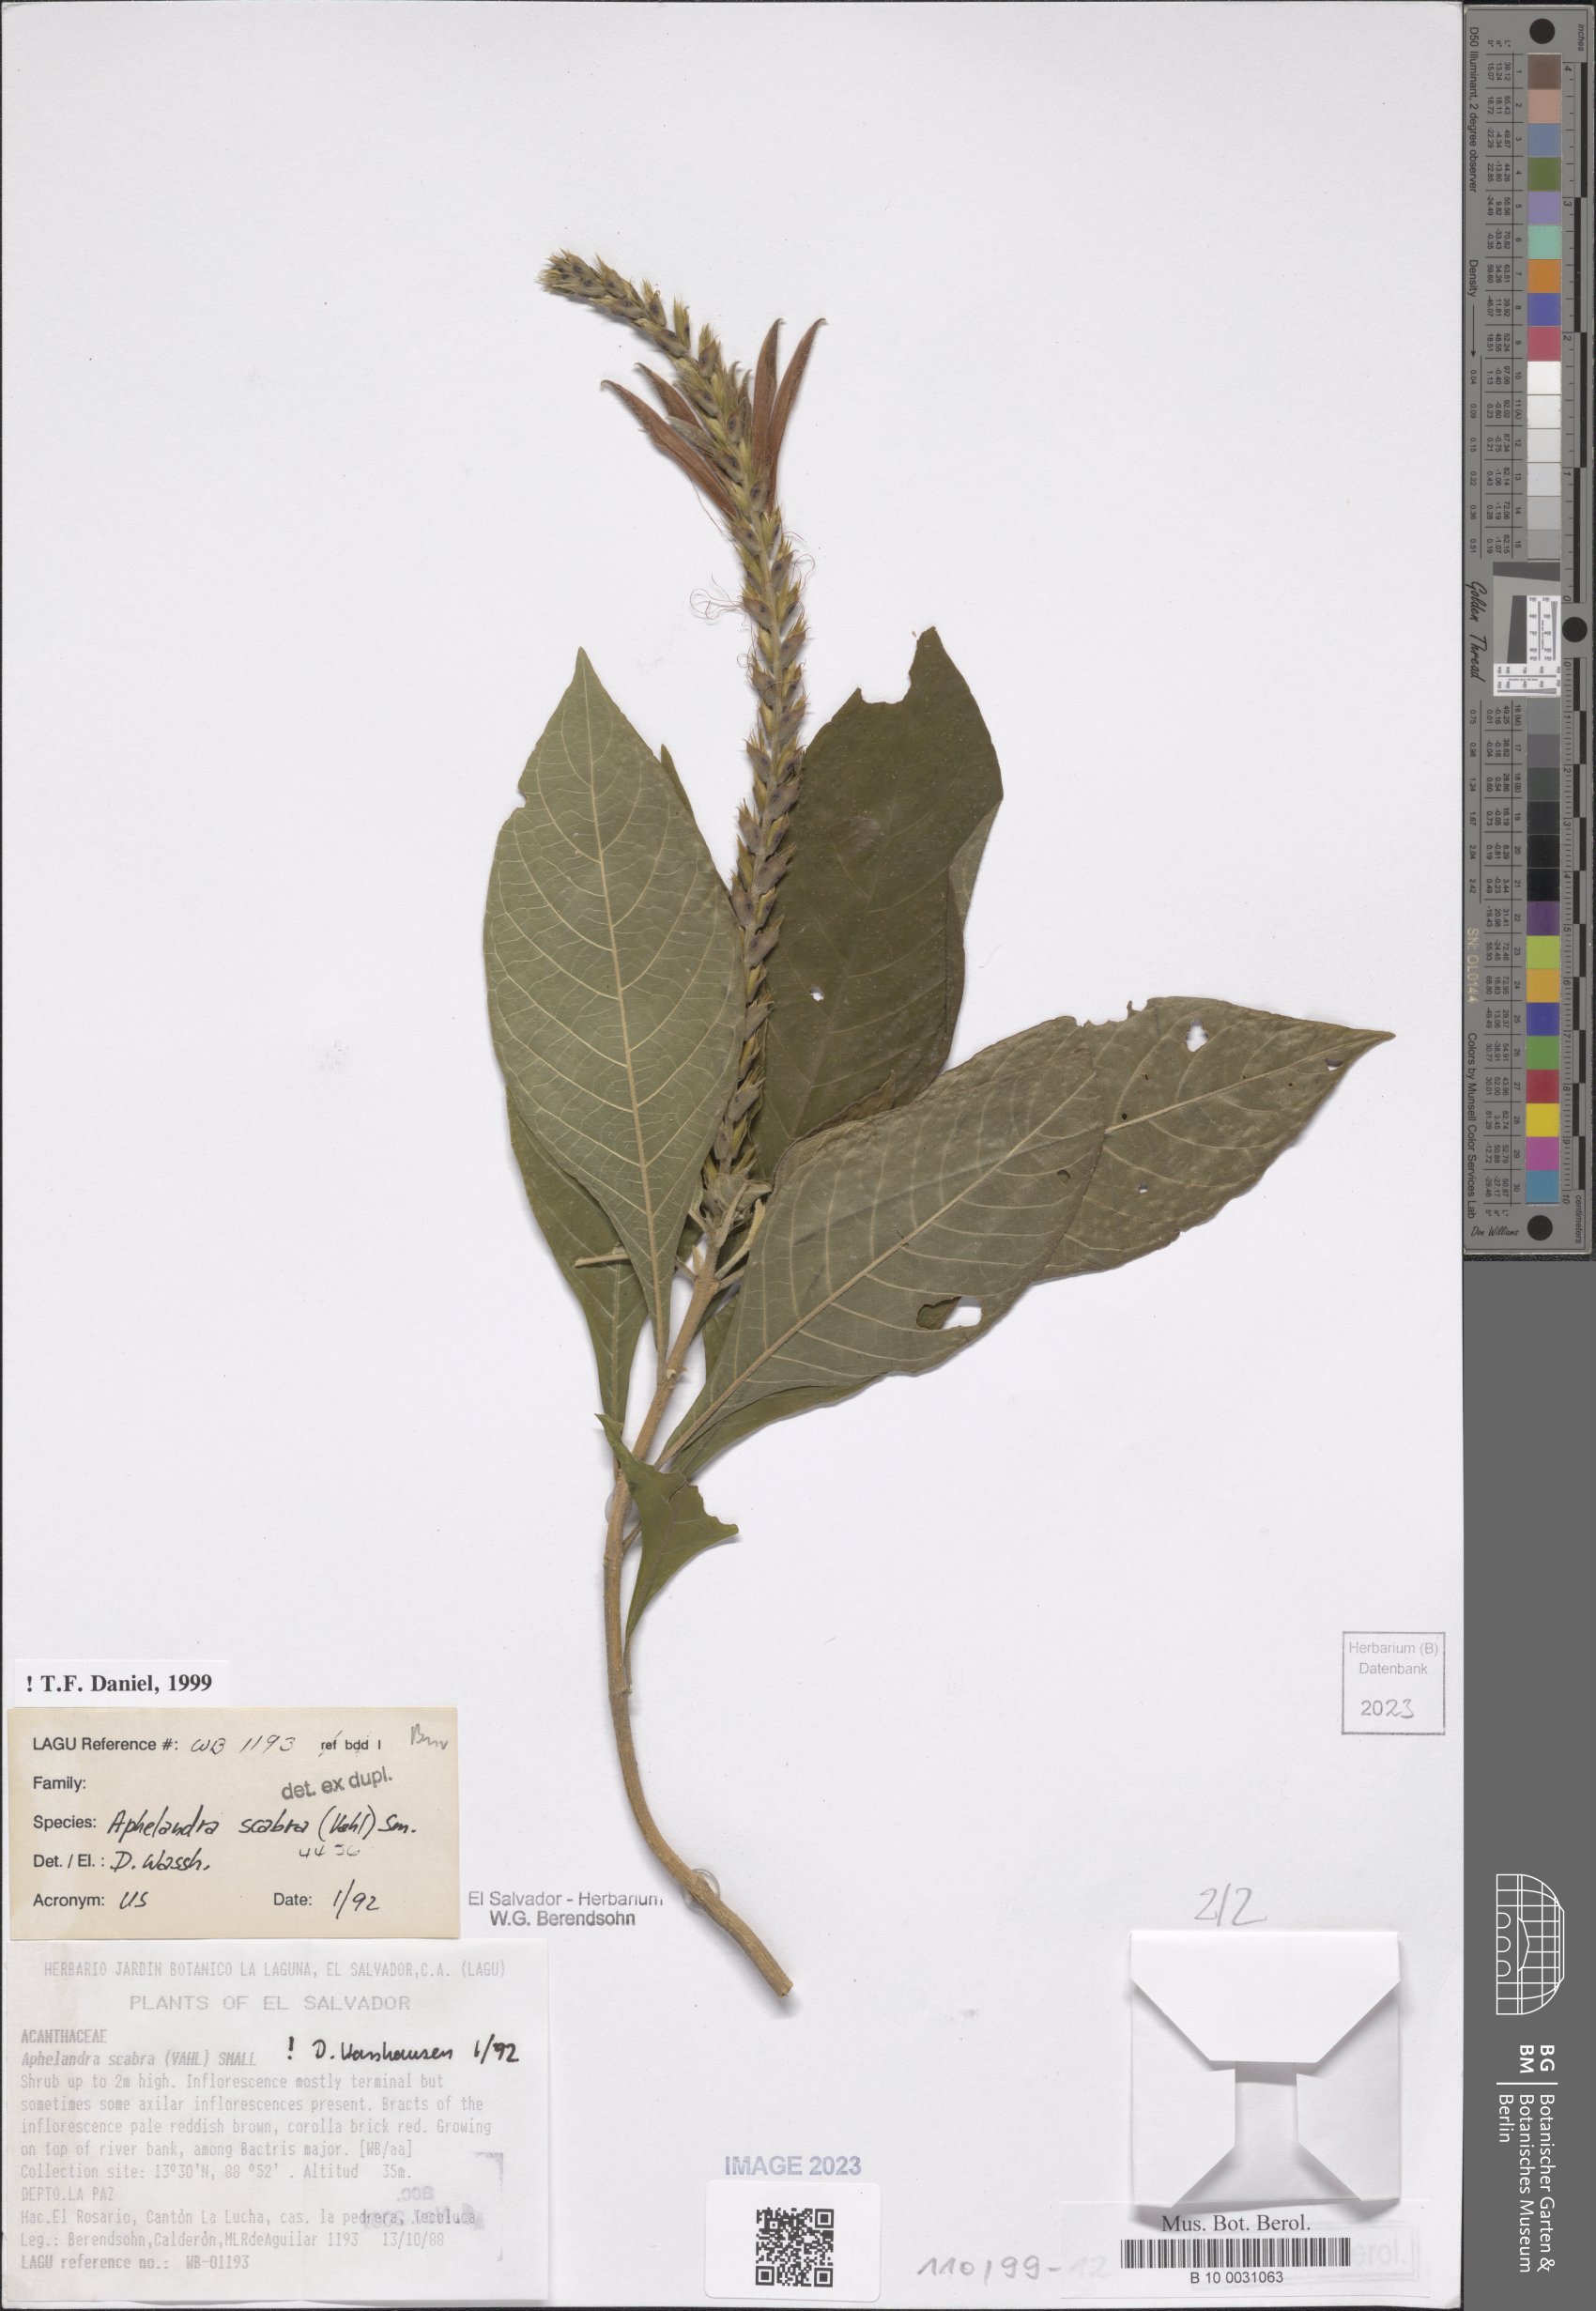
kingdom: Plantae
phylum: Tracheophyta
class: Magnoliopsida
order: Lamiales
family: Acanthaceae
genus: Aphelandra
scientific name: Aphelandra scabra
